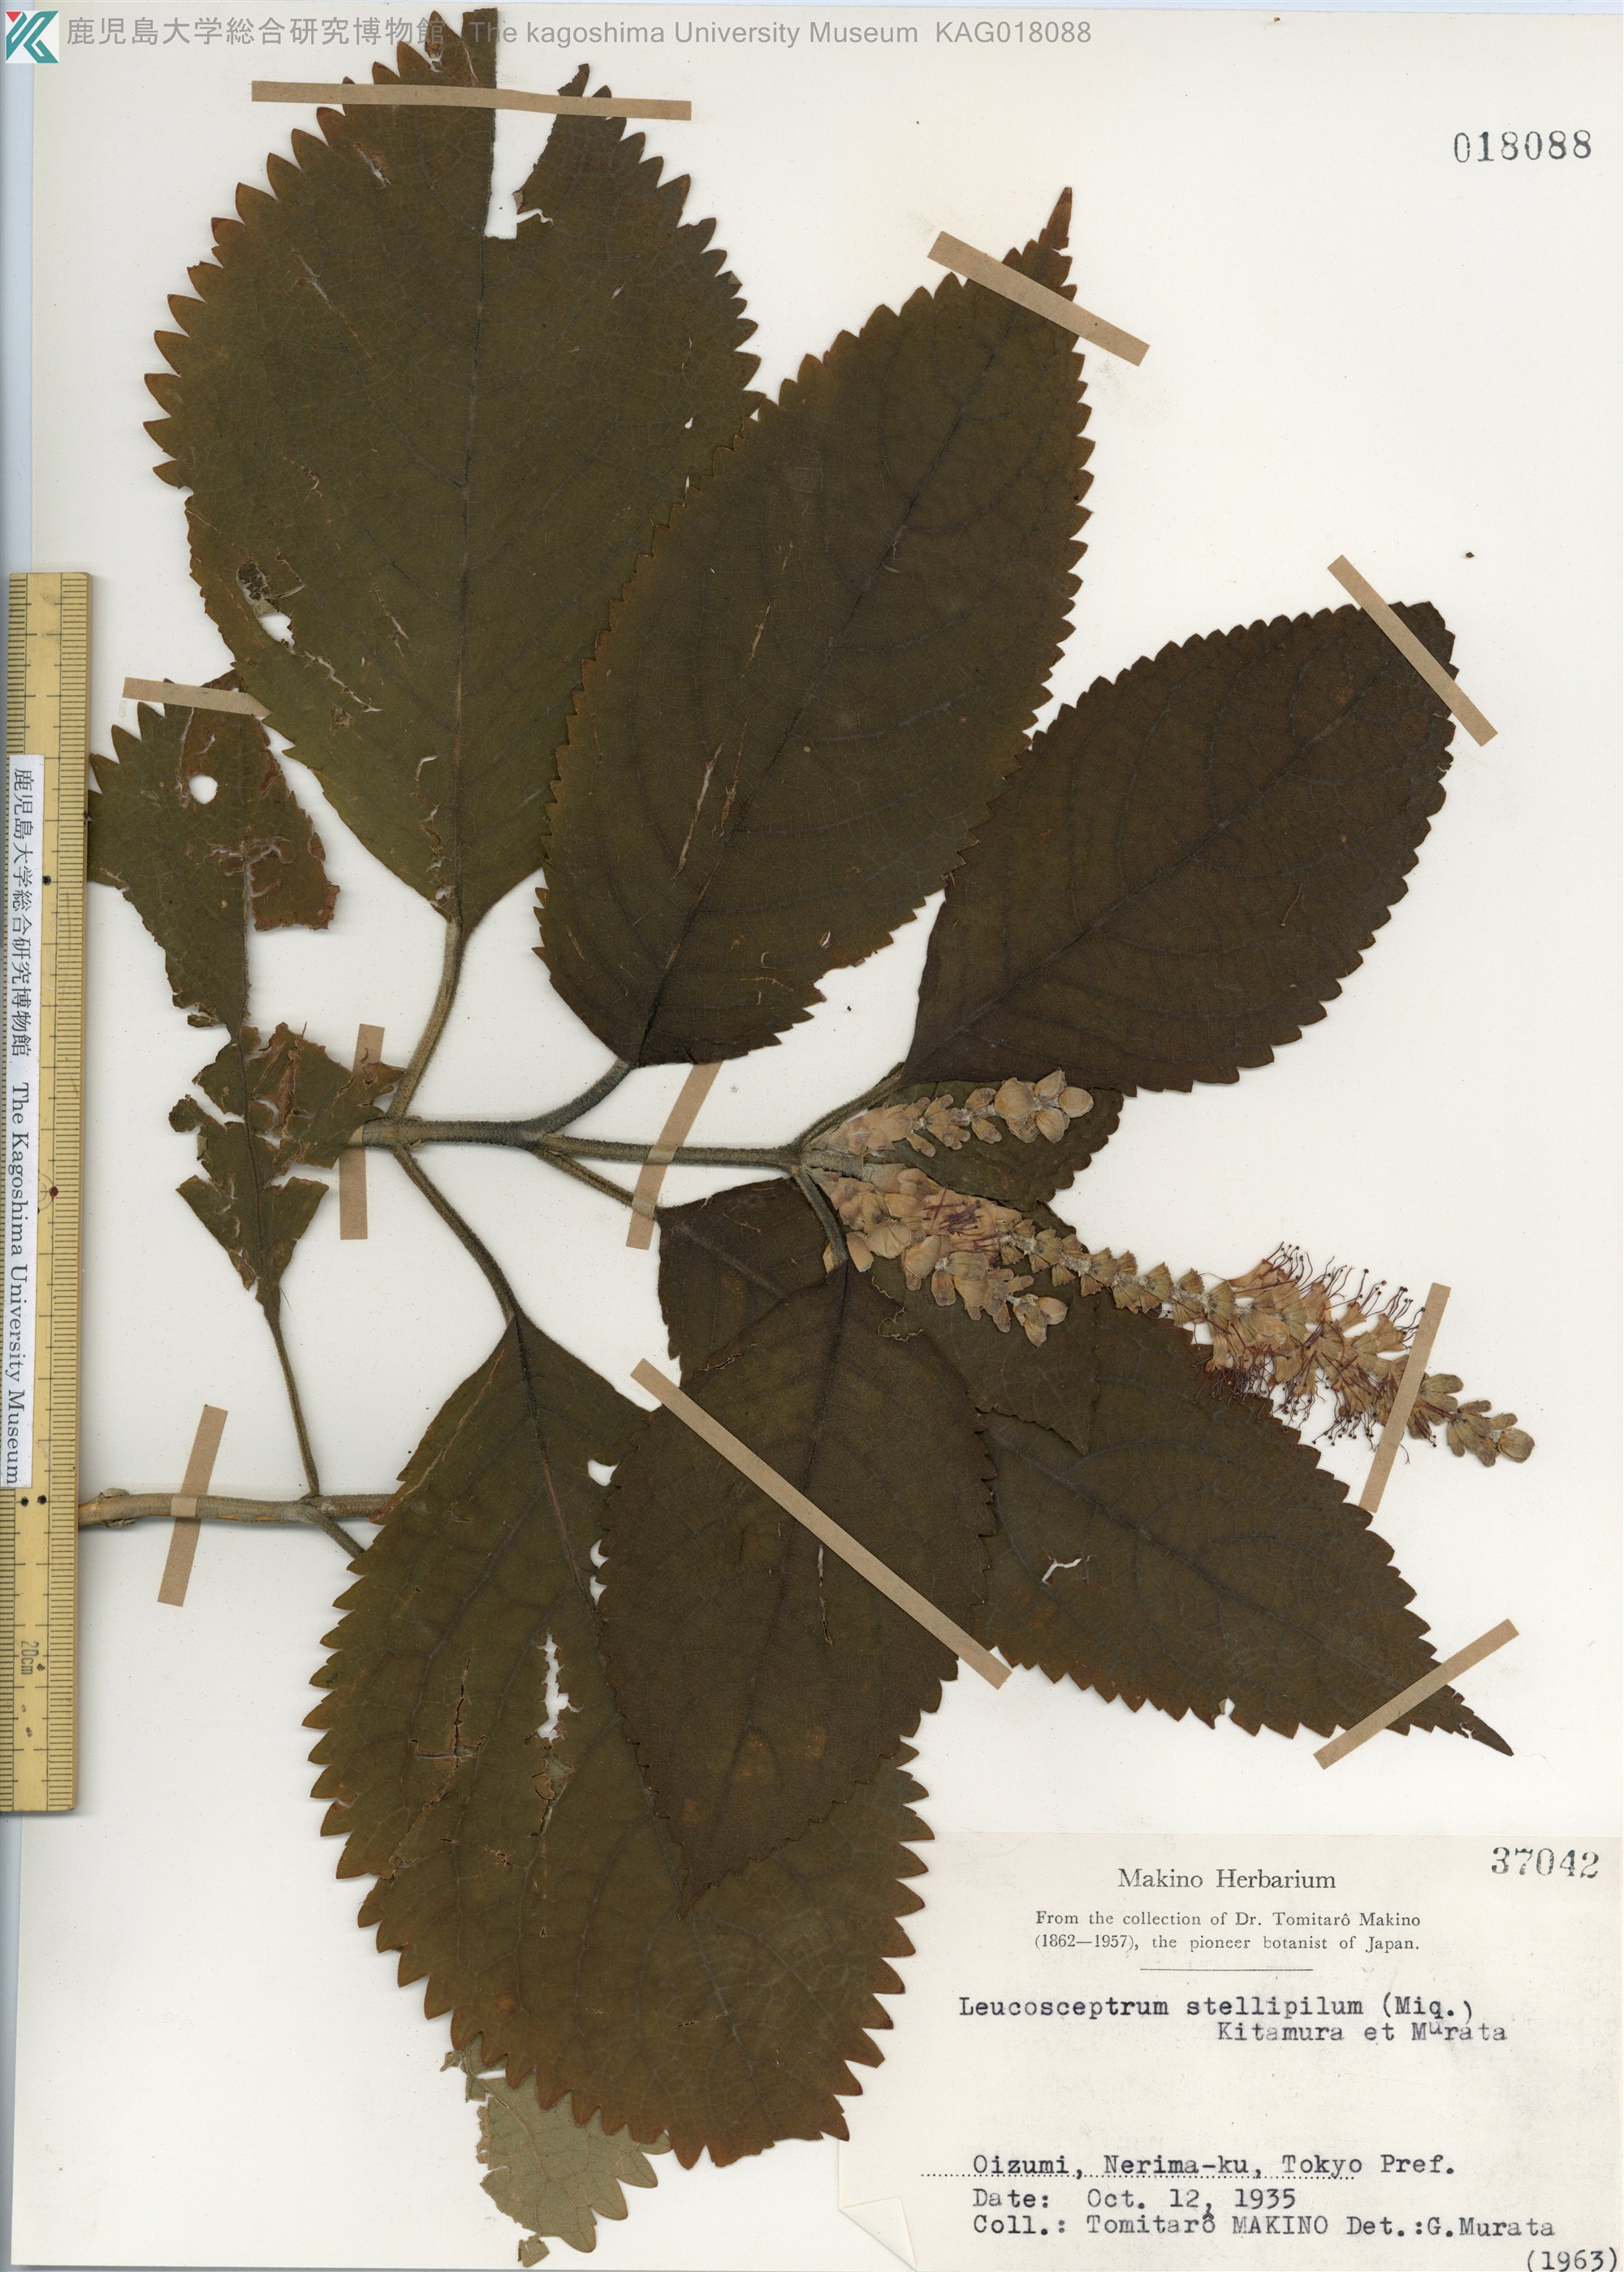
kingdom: Plantae
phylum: Tracheophyta
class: Magnoliopsida
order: Lamiales
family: Lamiaceae
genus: Comanthosphace
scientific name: Comanthosphace stellipila
